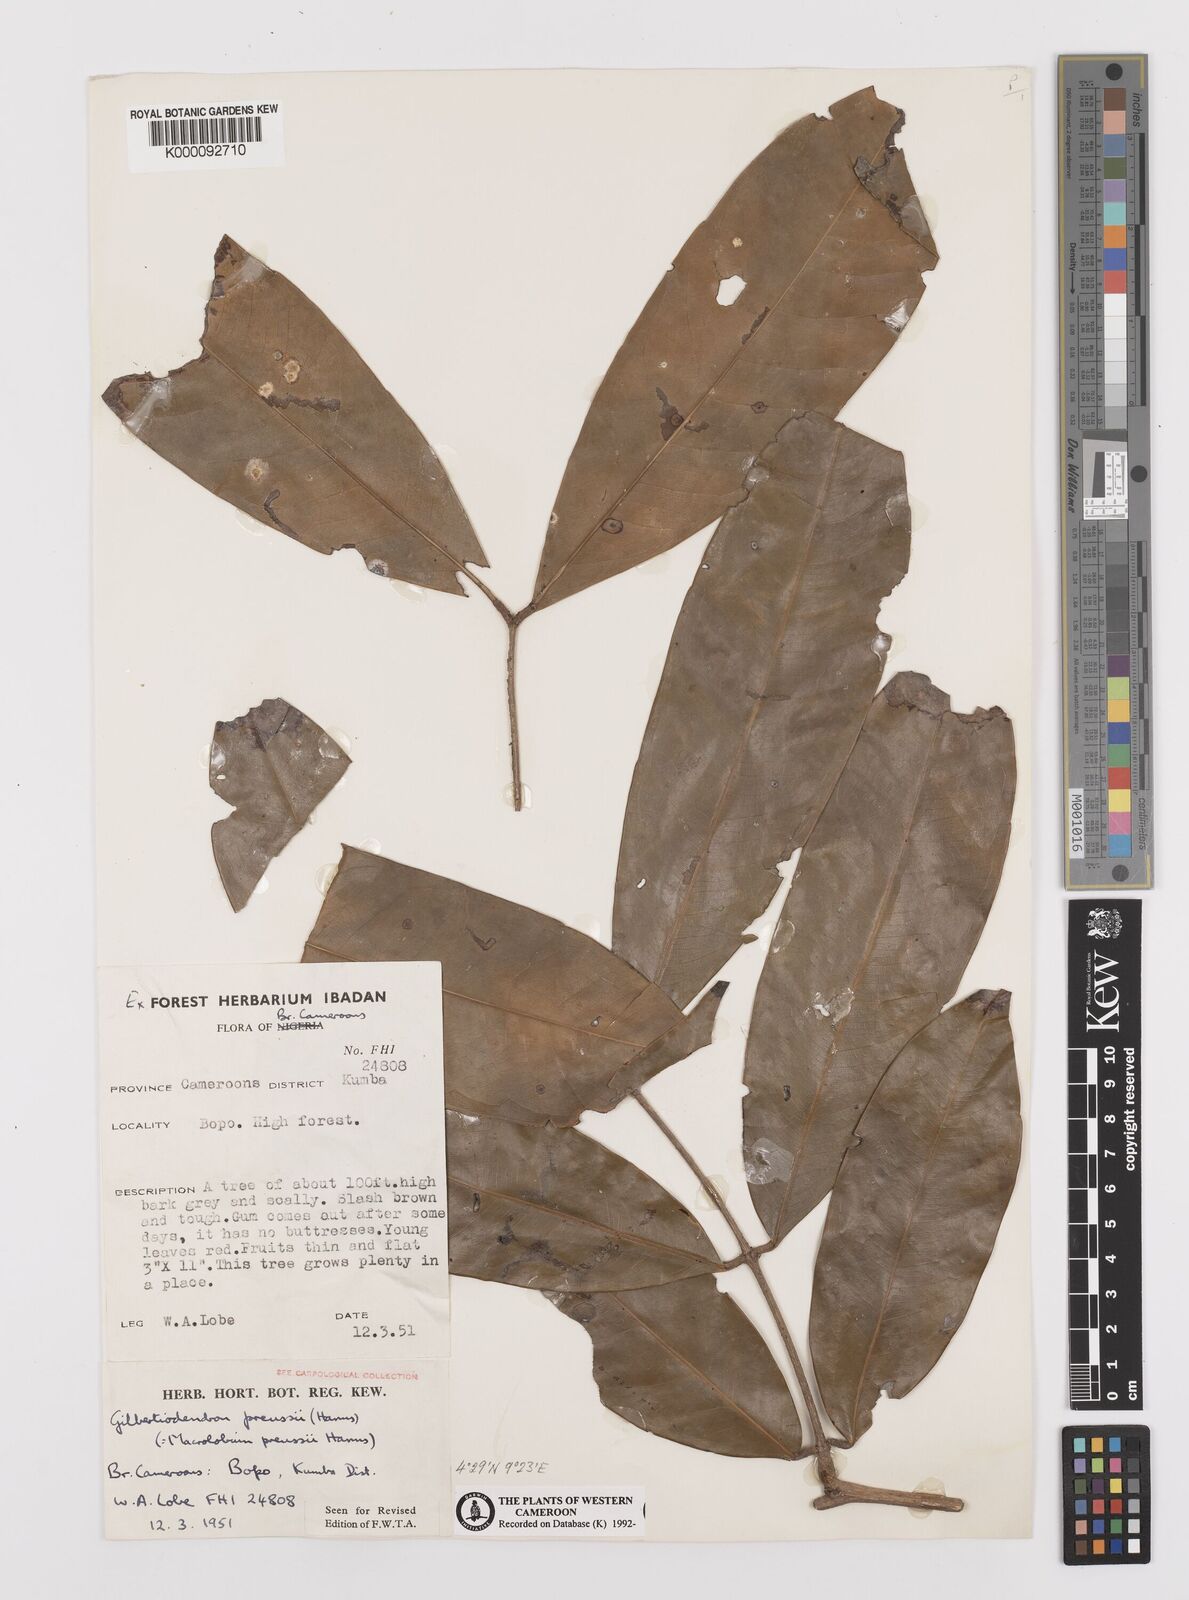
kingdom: Plantae
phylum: Tracheophyta
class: Magnoliopsida
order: Fabales
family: Fabaceae
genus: Gilbertiodendron
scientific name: Gilbertiodendron
